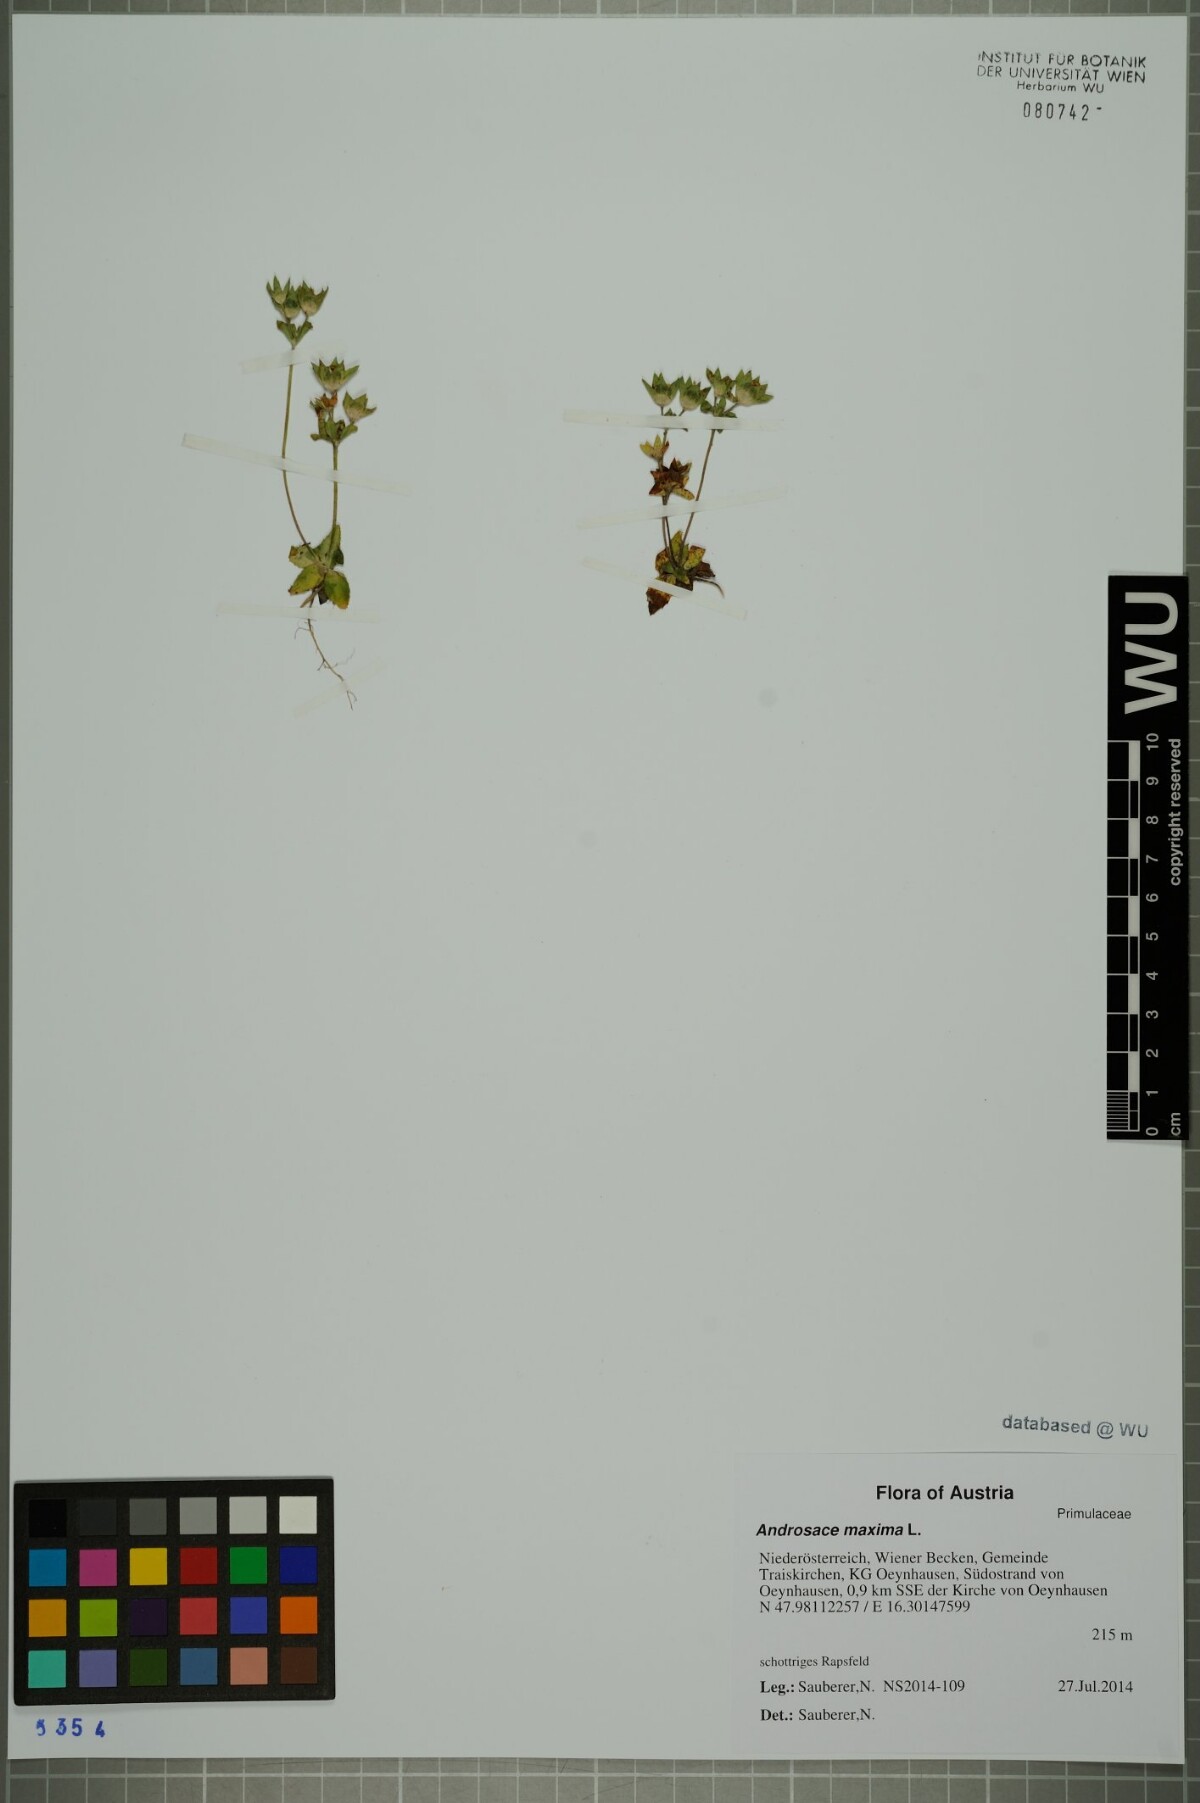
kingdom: Plantae
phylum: Tracheophyta
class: Magnoliopsida
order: Ericales
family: Primulaceae
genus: Androsace
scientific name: Androsace maxima
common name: Annual androsace
